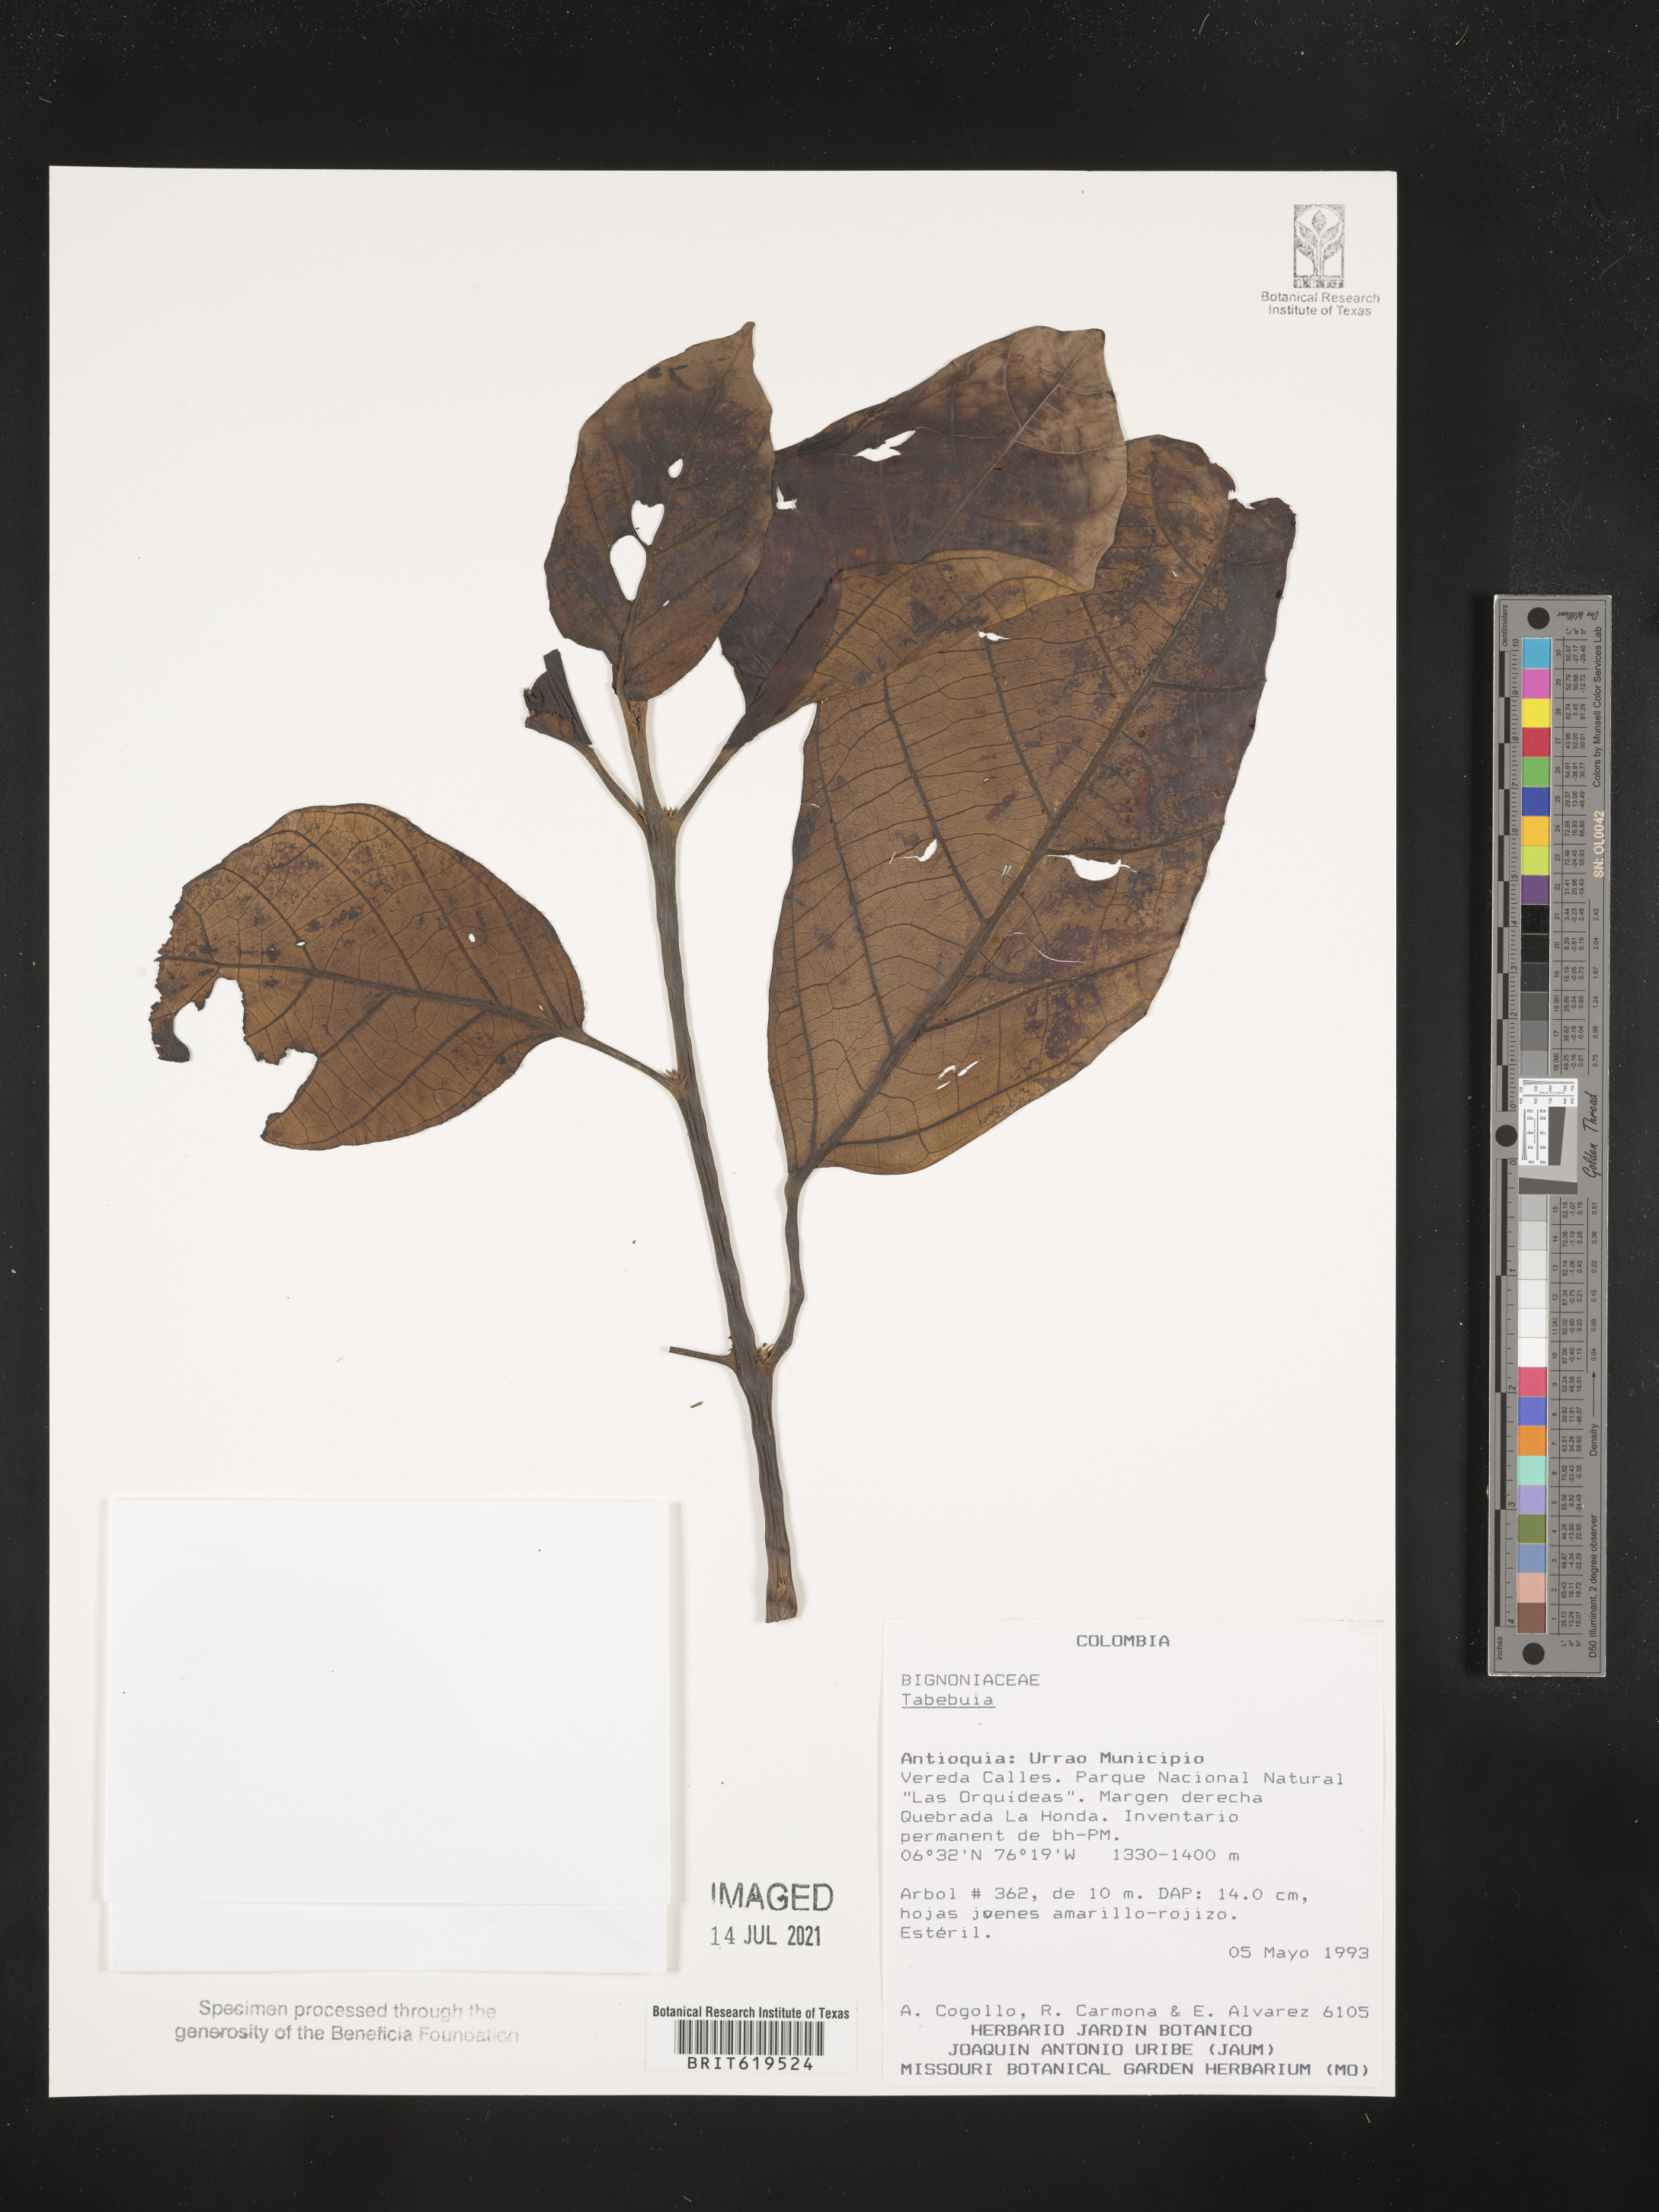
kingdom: Plantae
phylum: Tracheophyta
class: Magnoliopsida
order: Lamiales
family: Bignoniaceae
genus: Tabebuia
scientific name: Tabebuia
